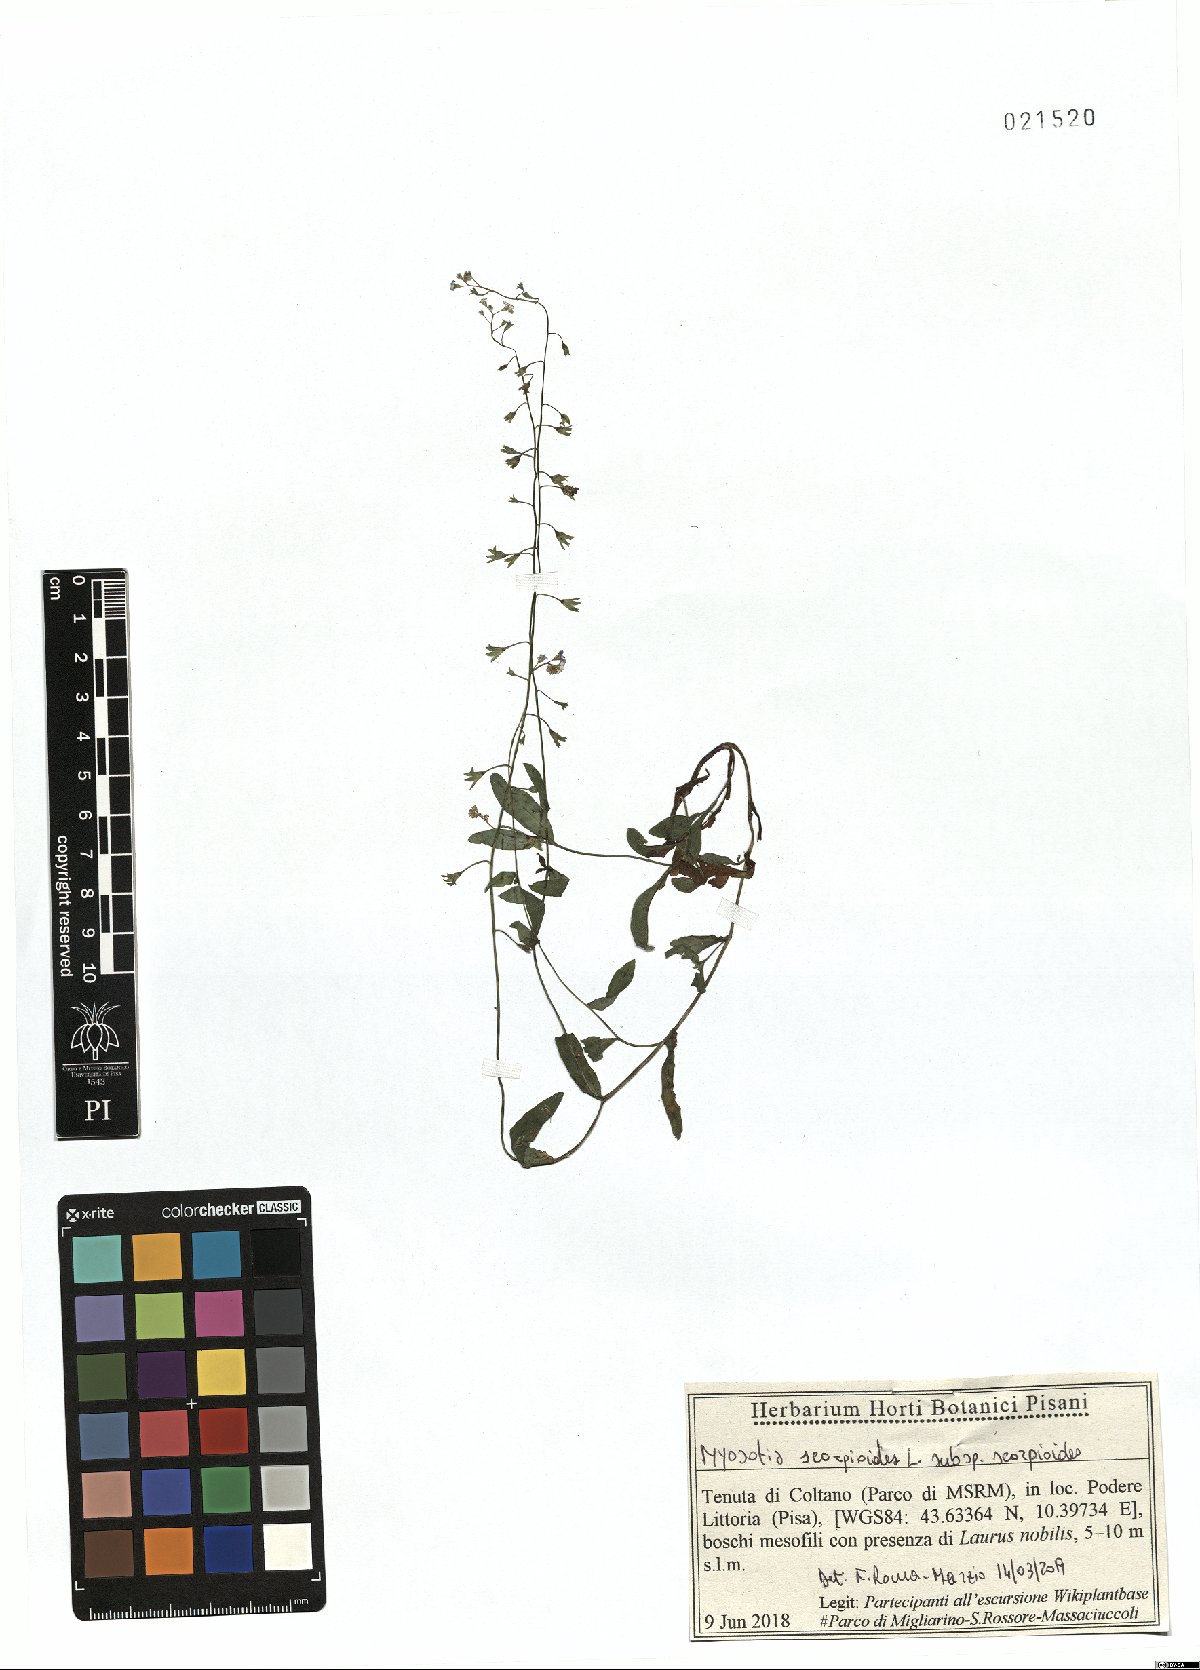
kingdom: Plantae
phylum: Tracheophyta
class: Magnoliopsida
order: Boraginales
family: Boraginaceae
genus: Myosotis
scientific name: Myosotis scorpioides
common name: Water forget-me-not
